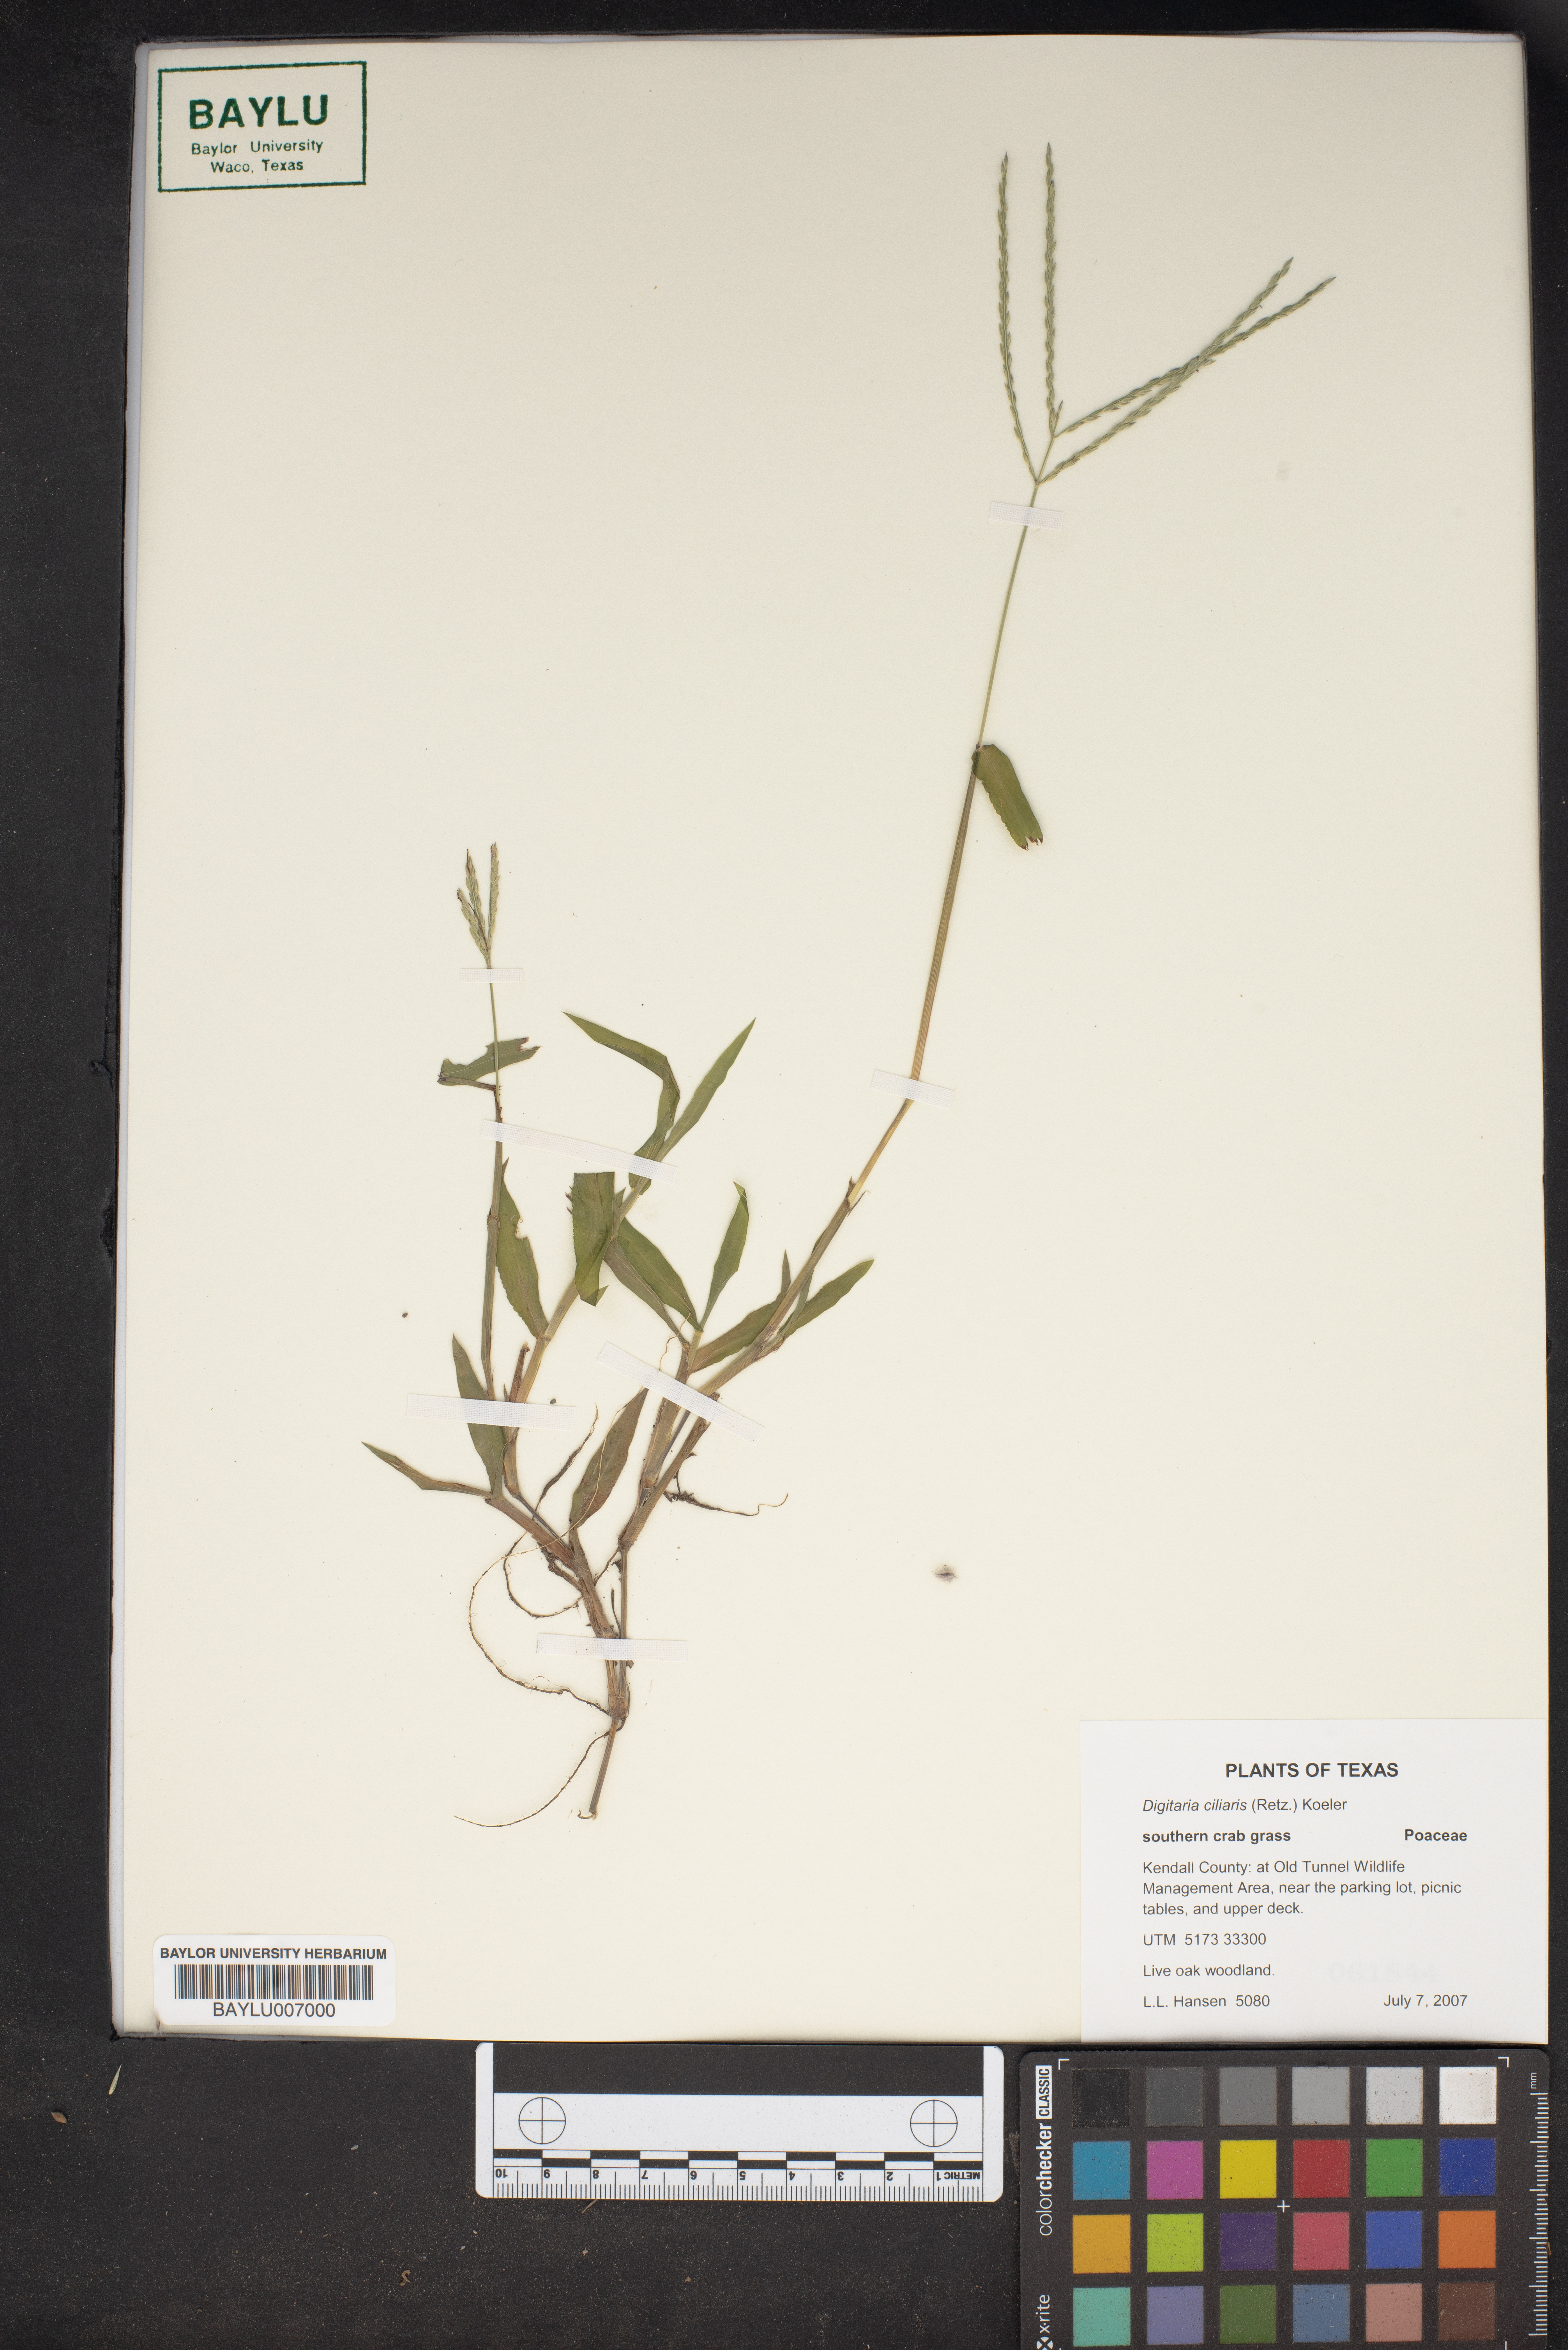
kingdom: Plantae
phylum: Tracheophyta
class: Liliopsida
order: Poales
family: Poaceae
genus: Digitaria
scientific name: Digitaria ciliaris
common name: Tropical finger-grass
